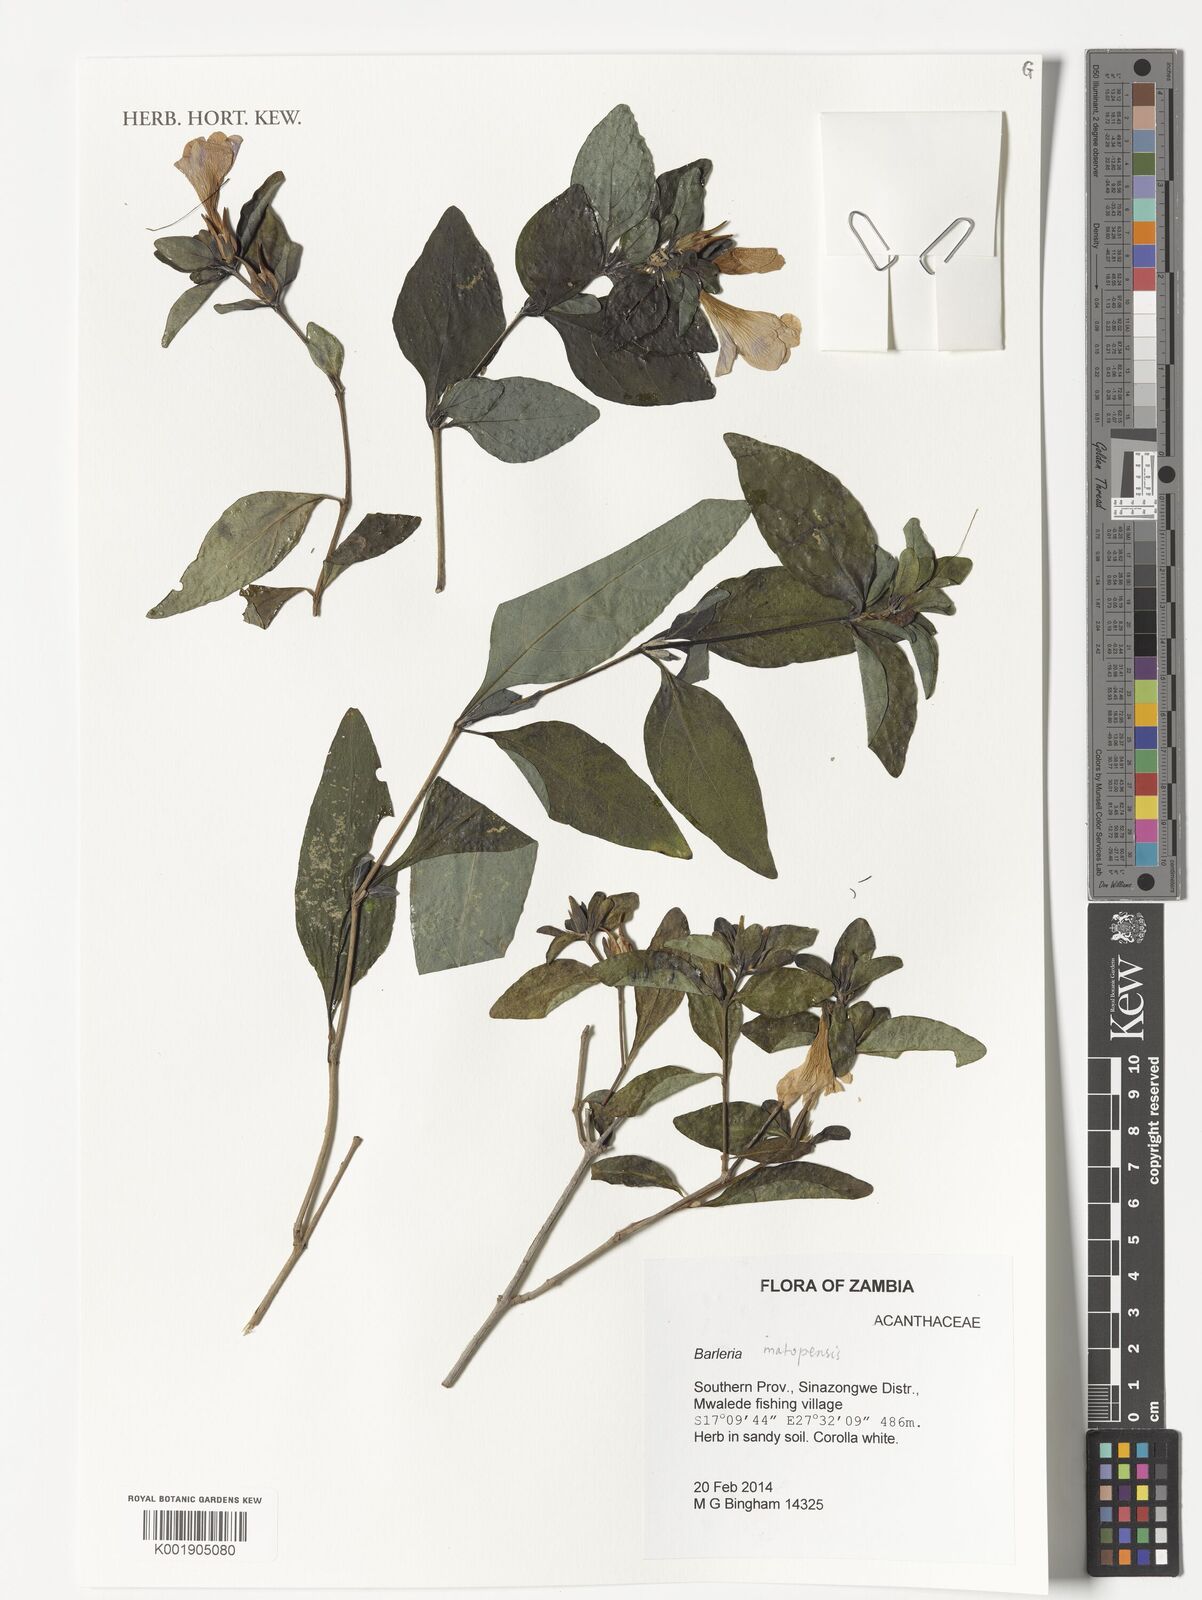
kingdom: Plantae
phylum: Tracheophyta
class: Magnoliopsida
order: Lamiales
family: Acanthaceae
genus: Barleria
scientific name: Barleria matopensis
